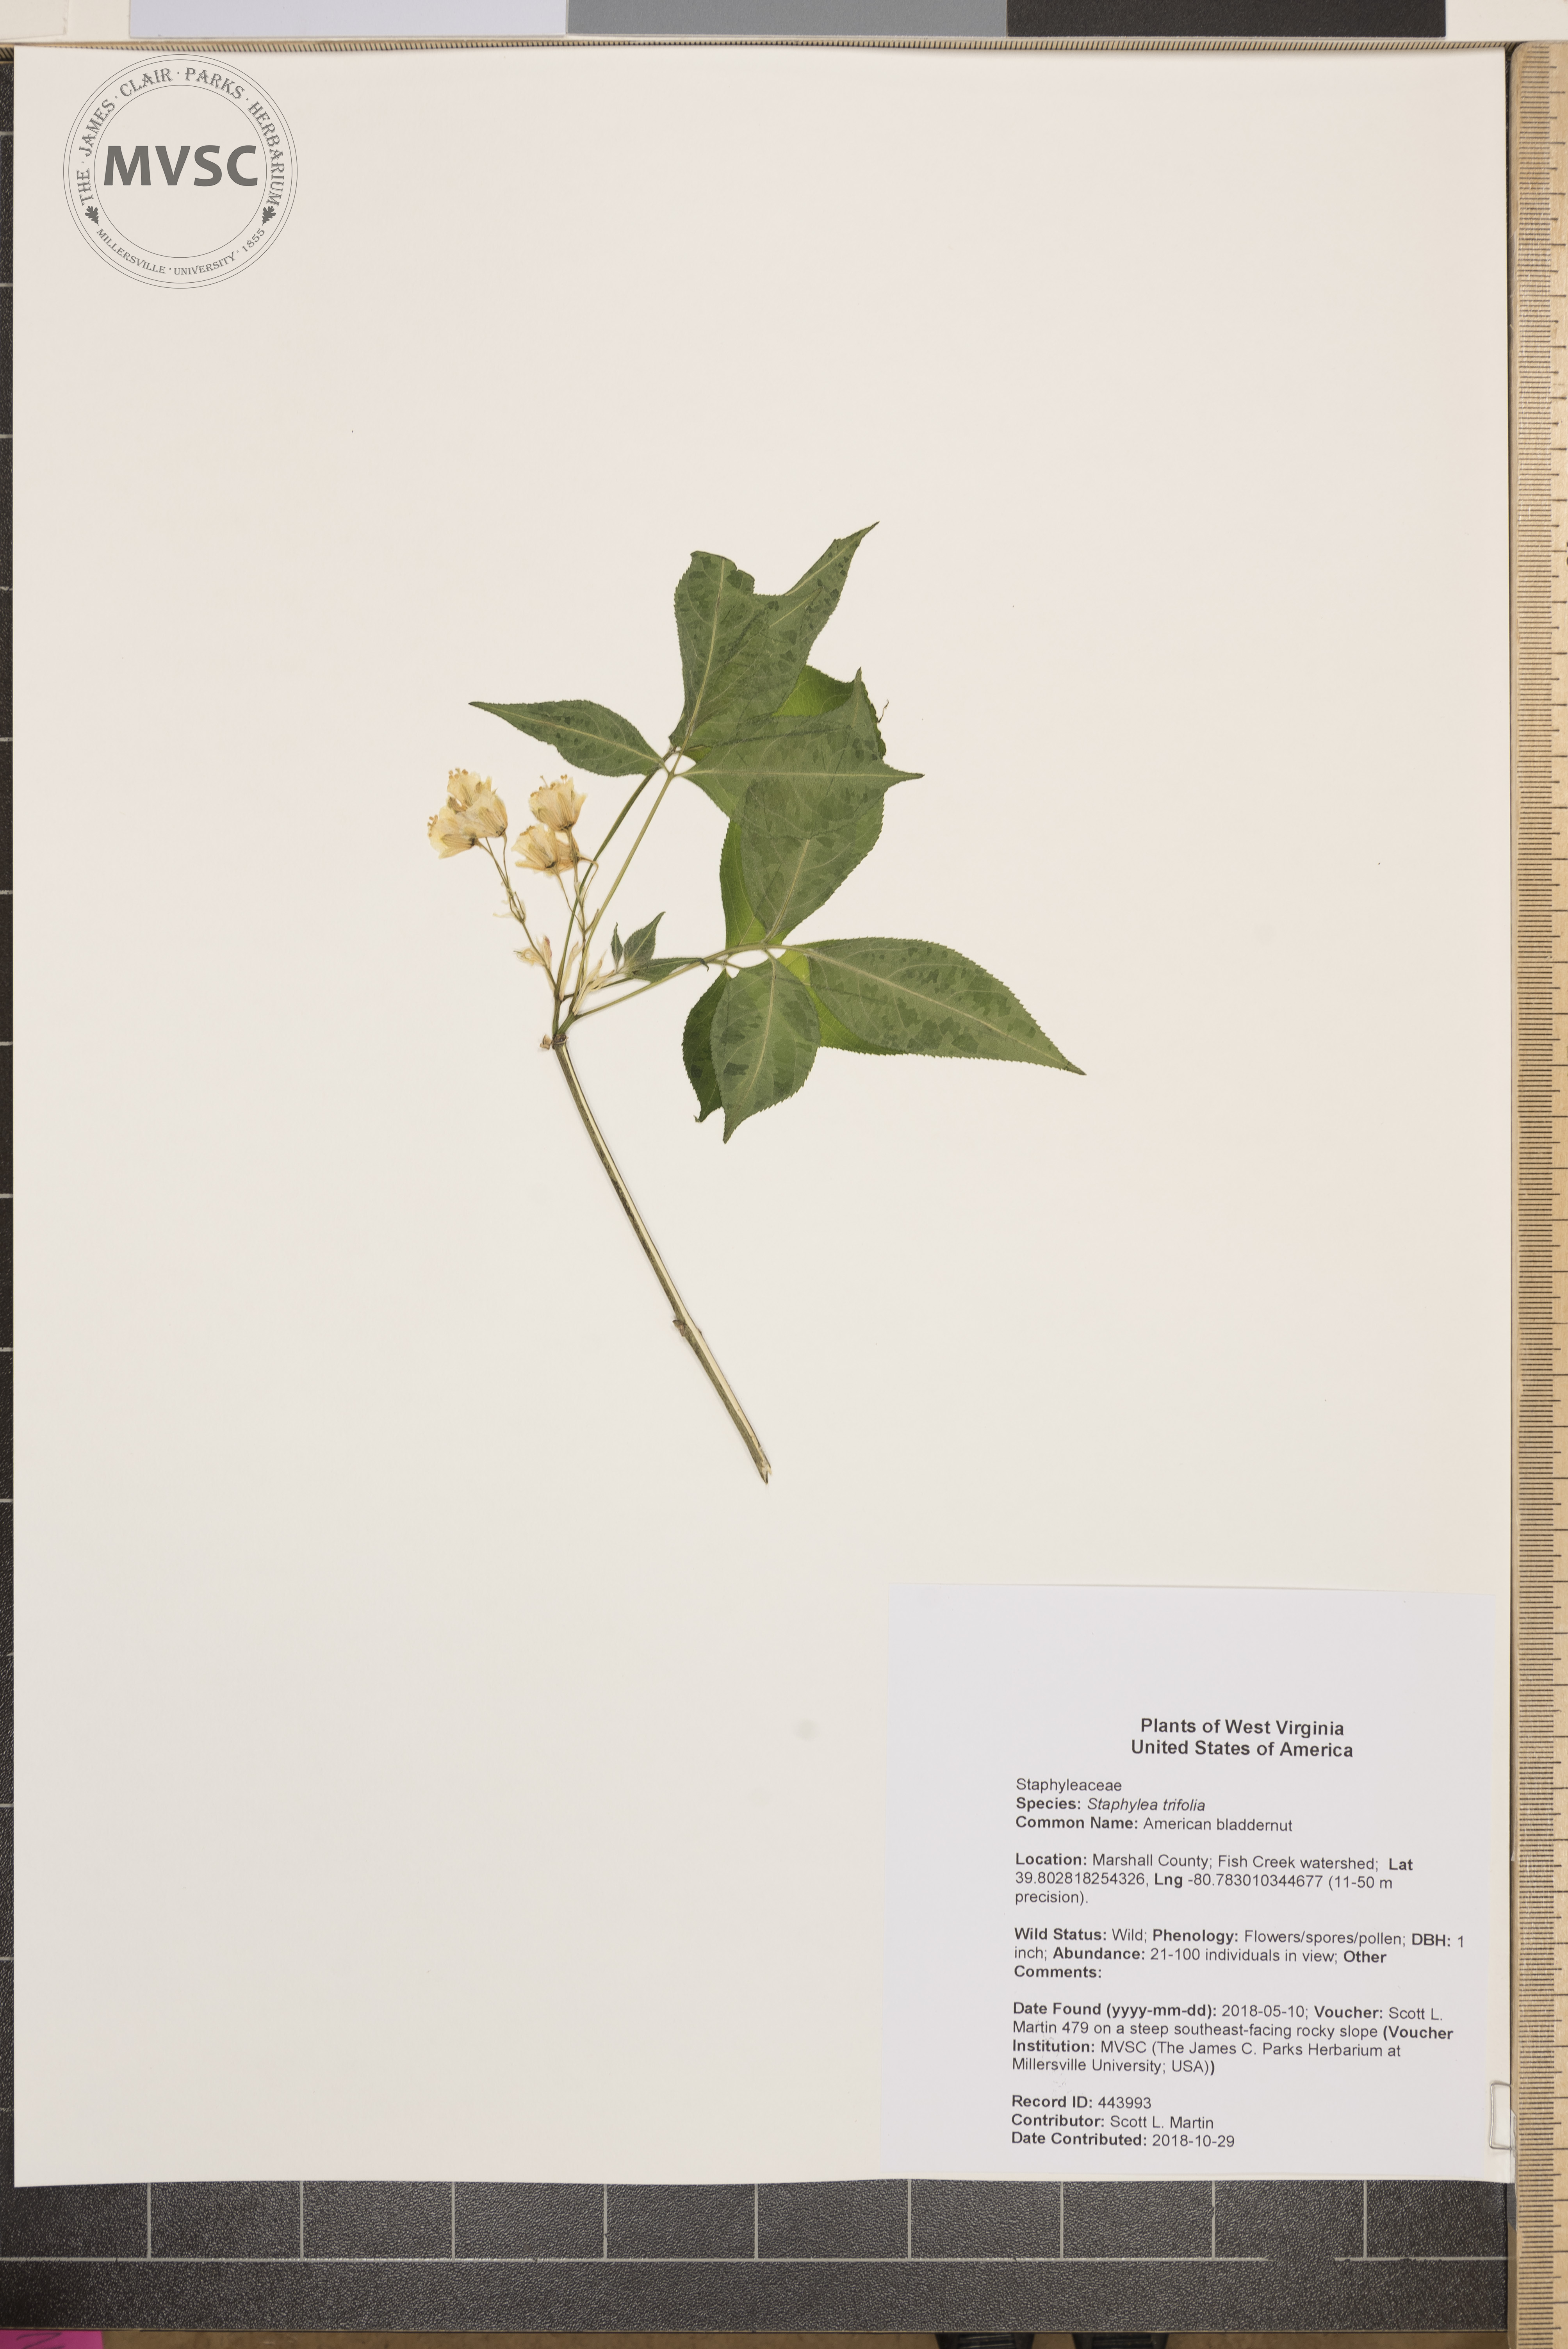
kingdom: Plantae
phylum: Tracheophyta
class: Magnoliopsida
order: Crossosomatales
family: Staphyleaceae
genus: Staphylea
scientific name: Staphylea trifolia
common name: American bladdernut
